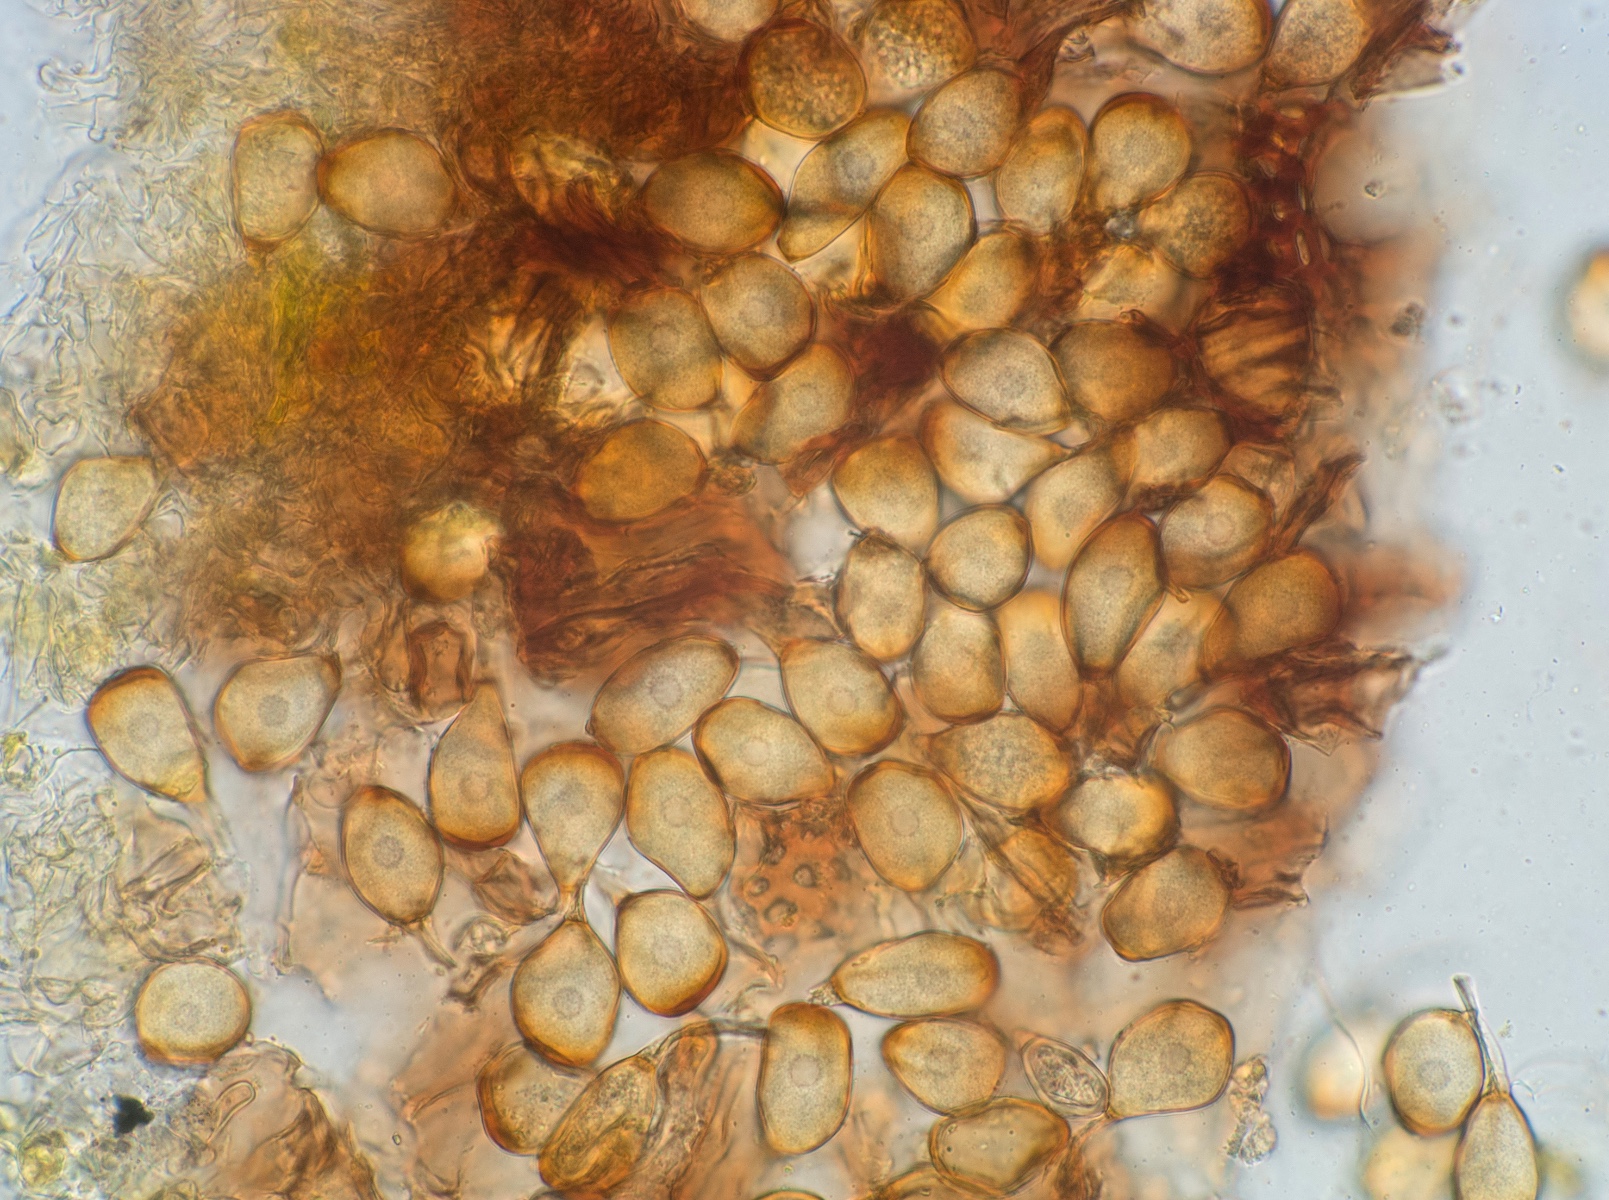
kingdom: Fungi
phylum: Basidiomycota
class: Pucciniomycetes
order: Pucciniales
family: Pucciniaceae
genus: Uromyces
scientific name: Uromyces dactylidis
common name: ranunkel-encellerust
